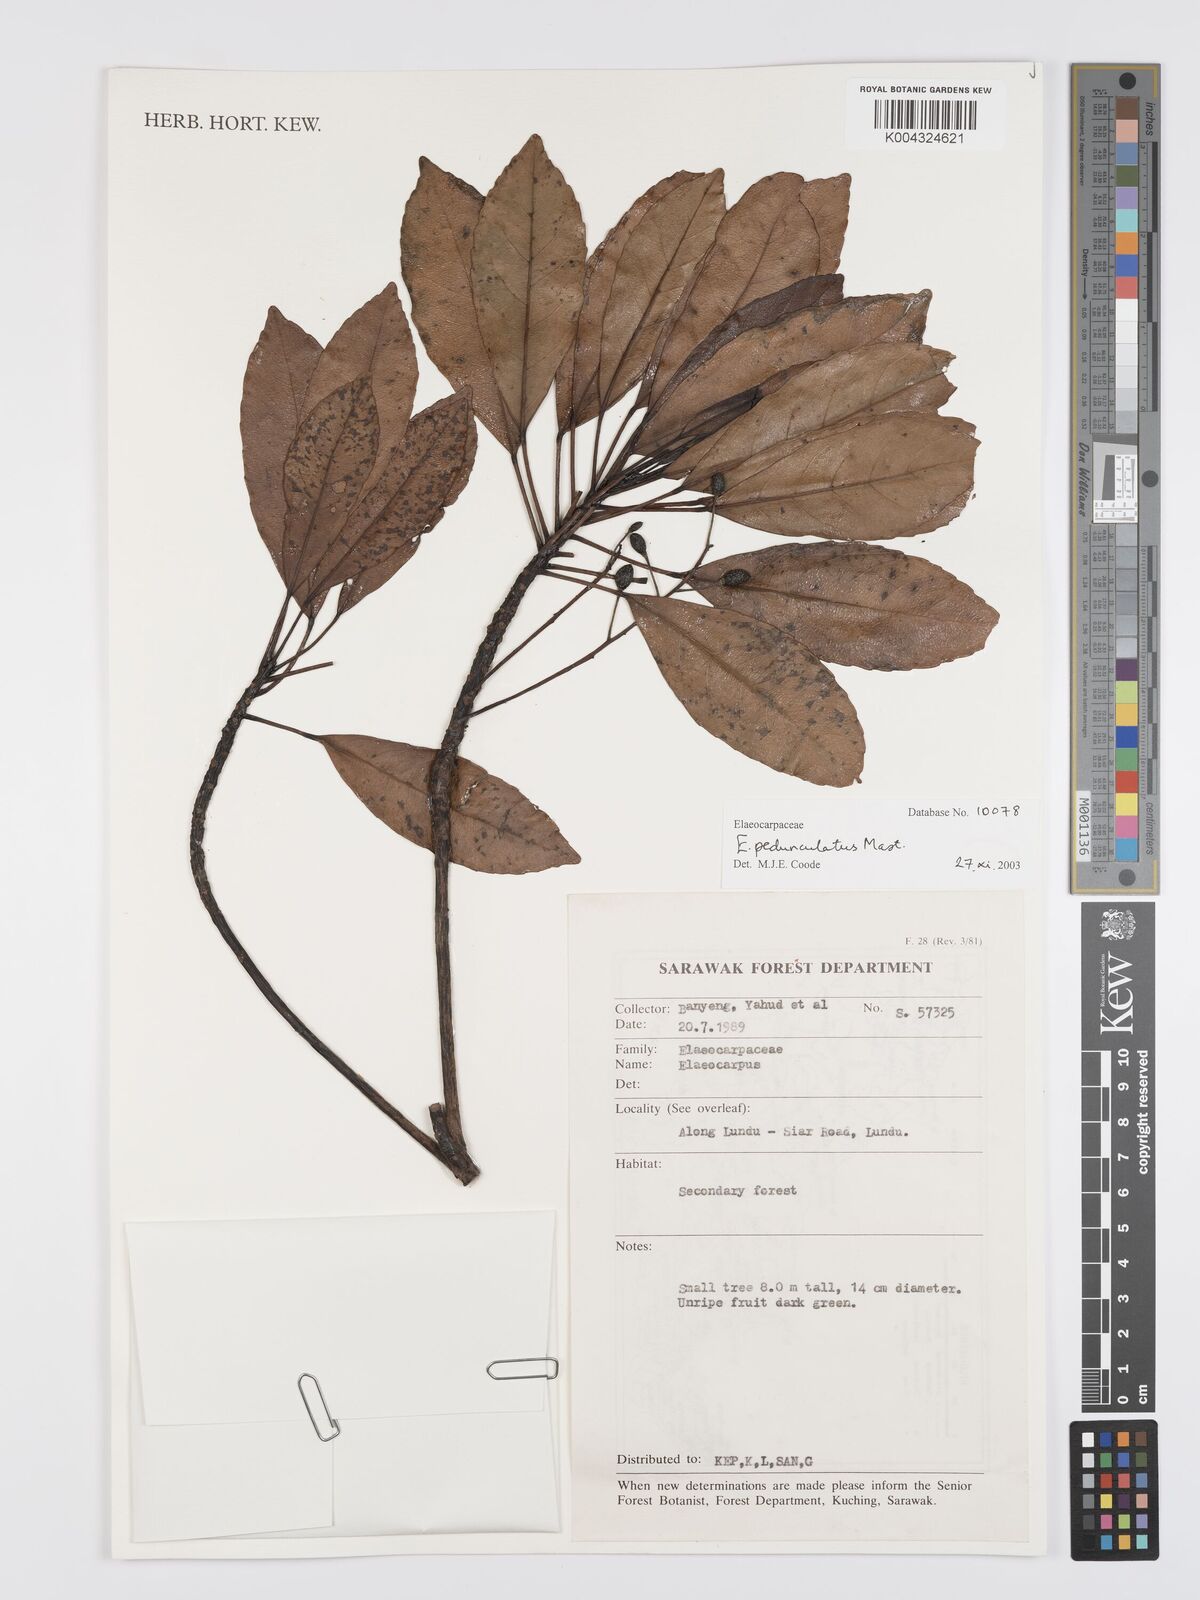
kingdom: Plantae
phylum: Tracheophyta
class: Magnoliopsida
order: Oxalidales
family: Elaeocarpaceae
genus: Elaeocarpus
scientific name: Elaeocarpus pedunculatus
